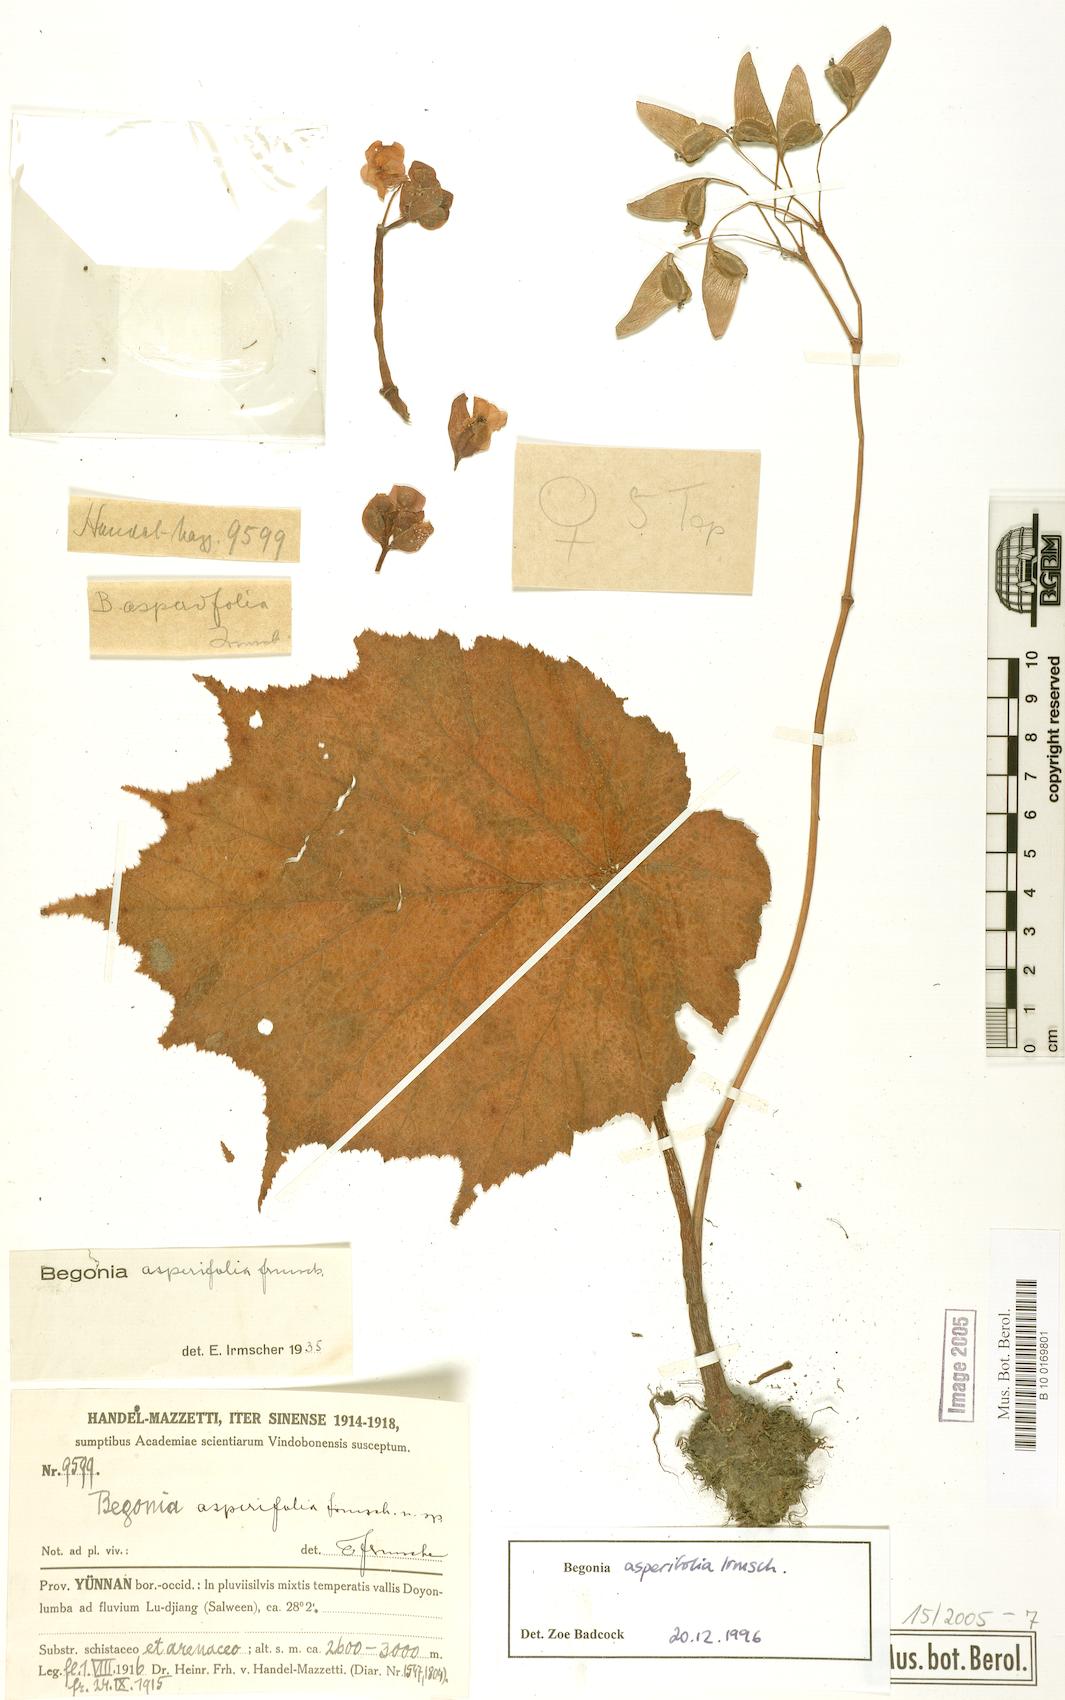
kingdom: Plantae
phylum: Tracheophyta
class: Magnoliopsida
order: Cucurbitales
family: Begoniaceae
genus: Begonia
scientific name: Begonia asperifolia
